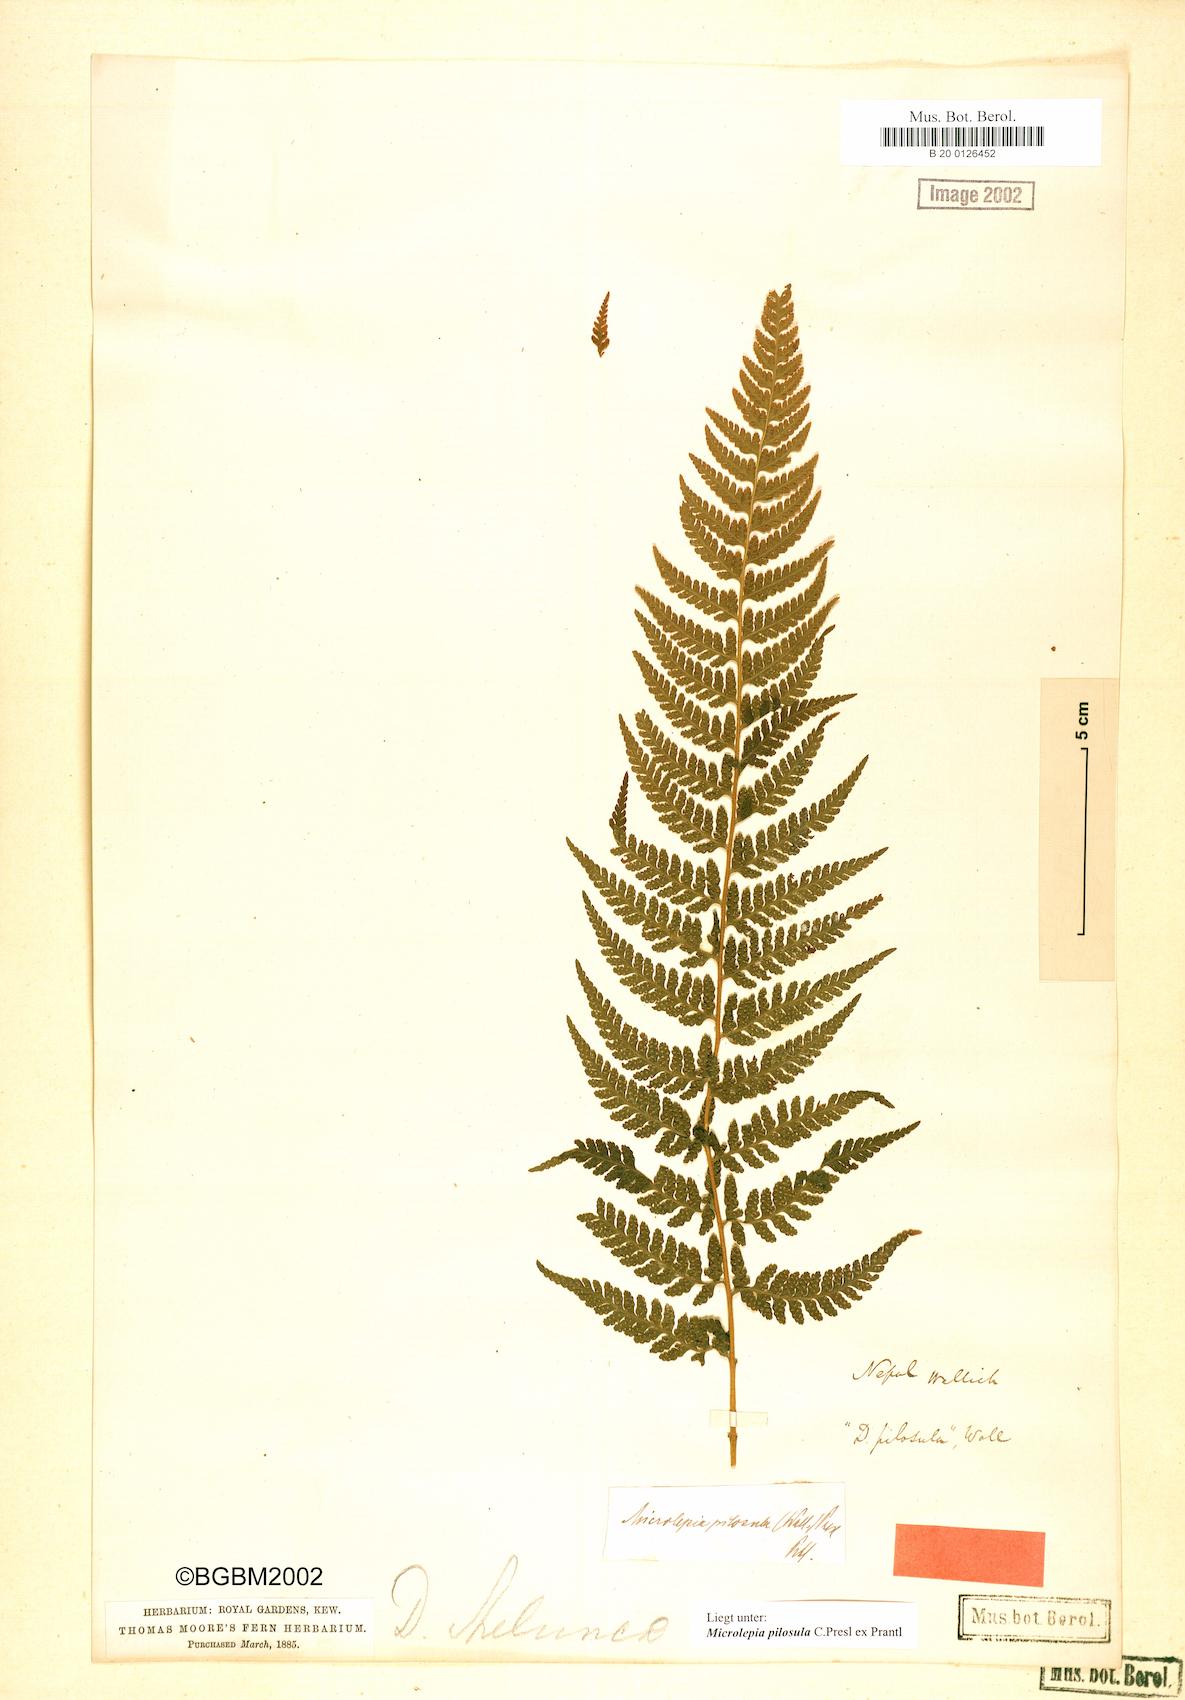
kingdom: Plantae
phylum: Tracheophyta
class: Polypodiopsida
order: Polypodiales
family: Dennstaedtiaceae
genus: Microlepia
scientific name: Microlepia speluncae
